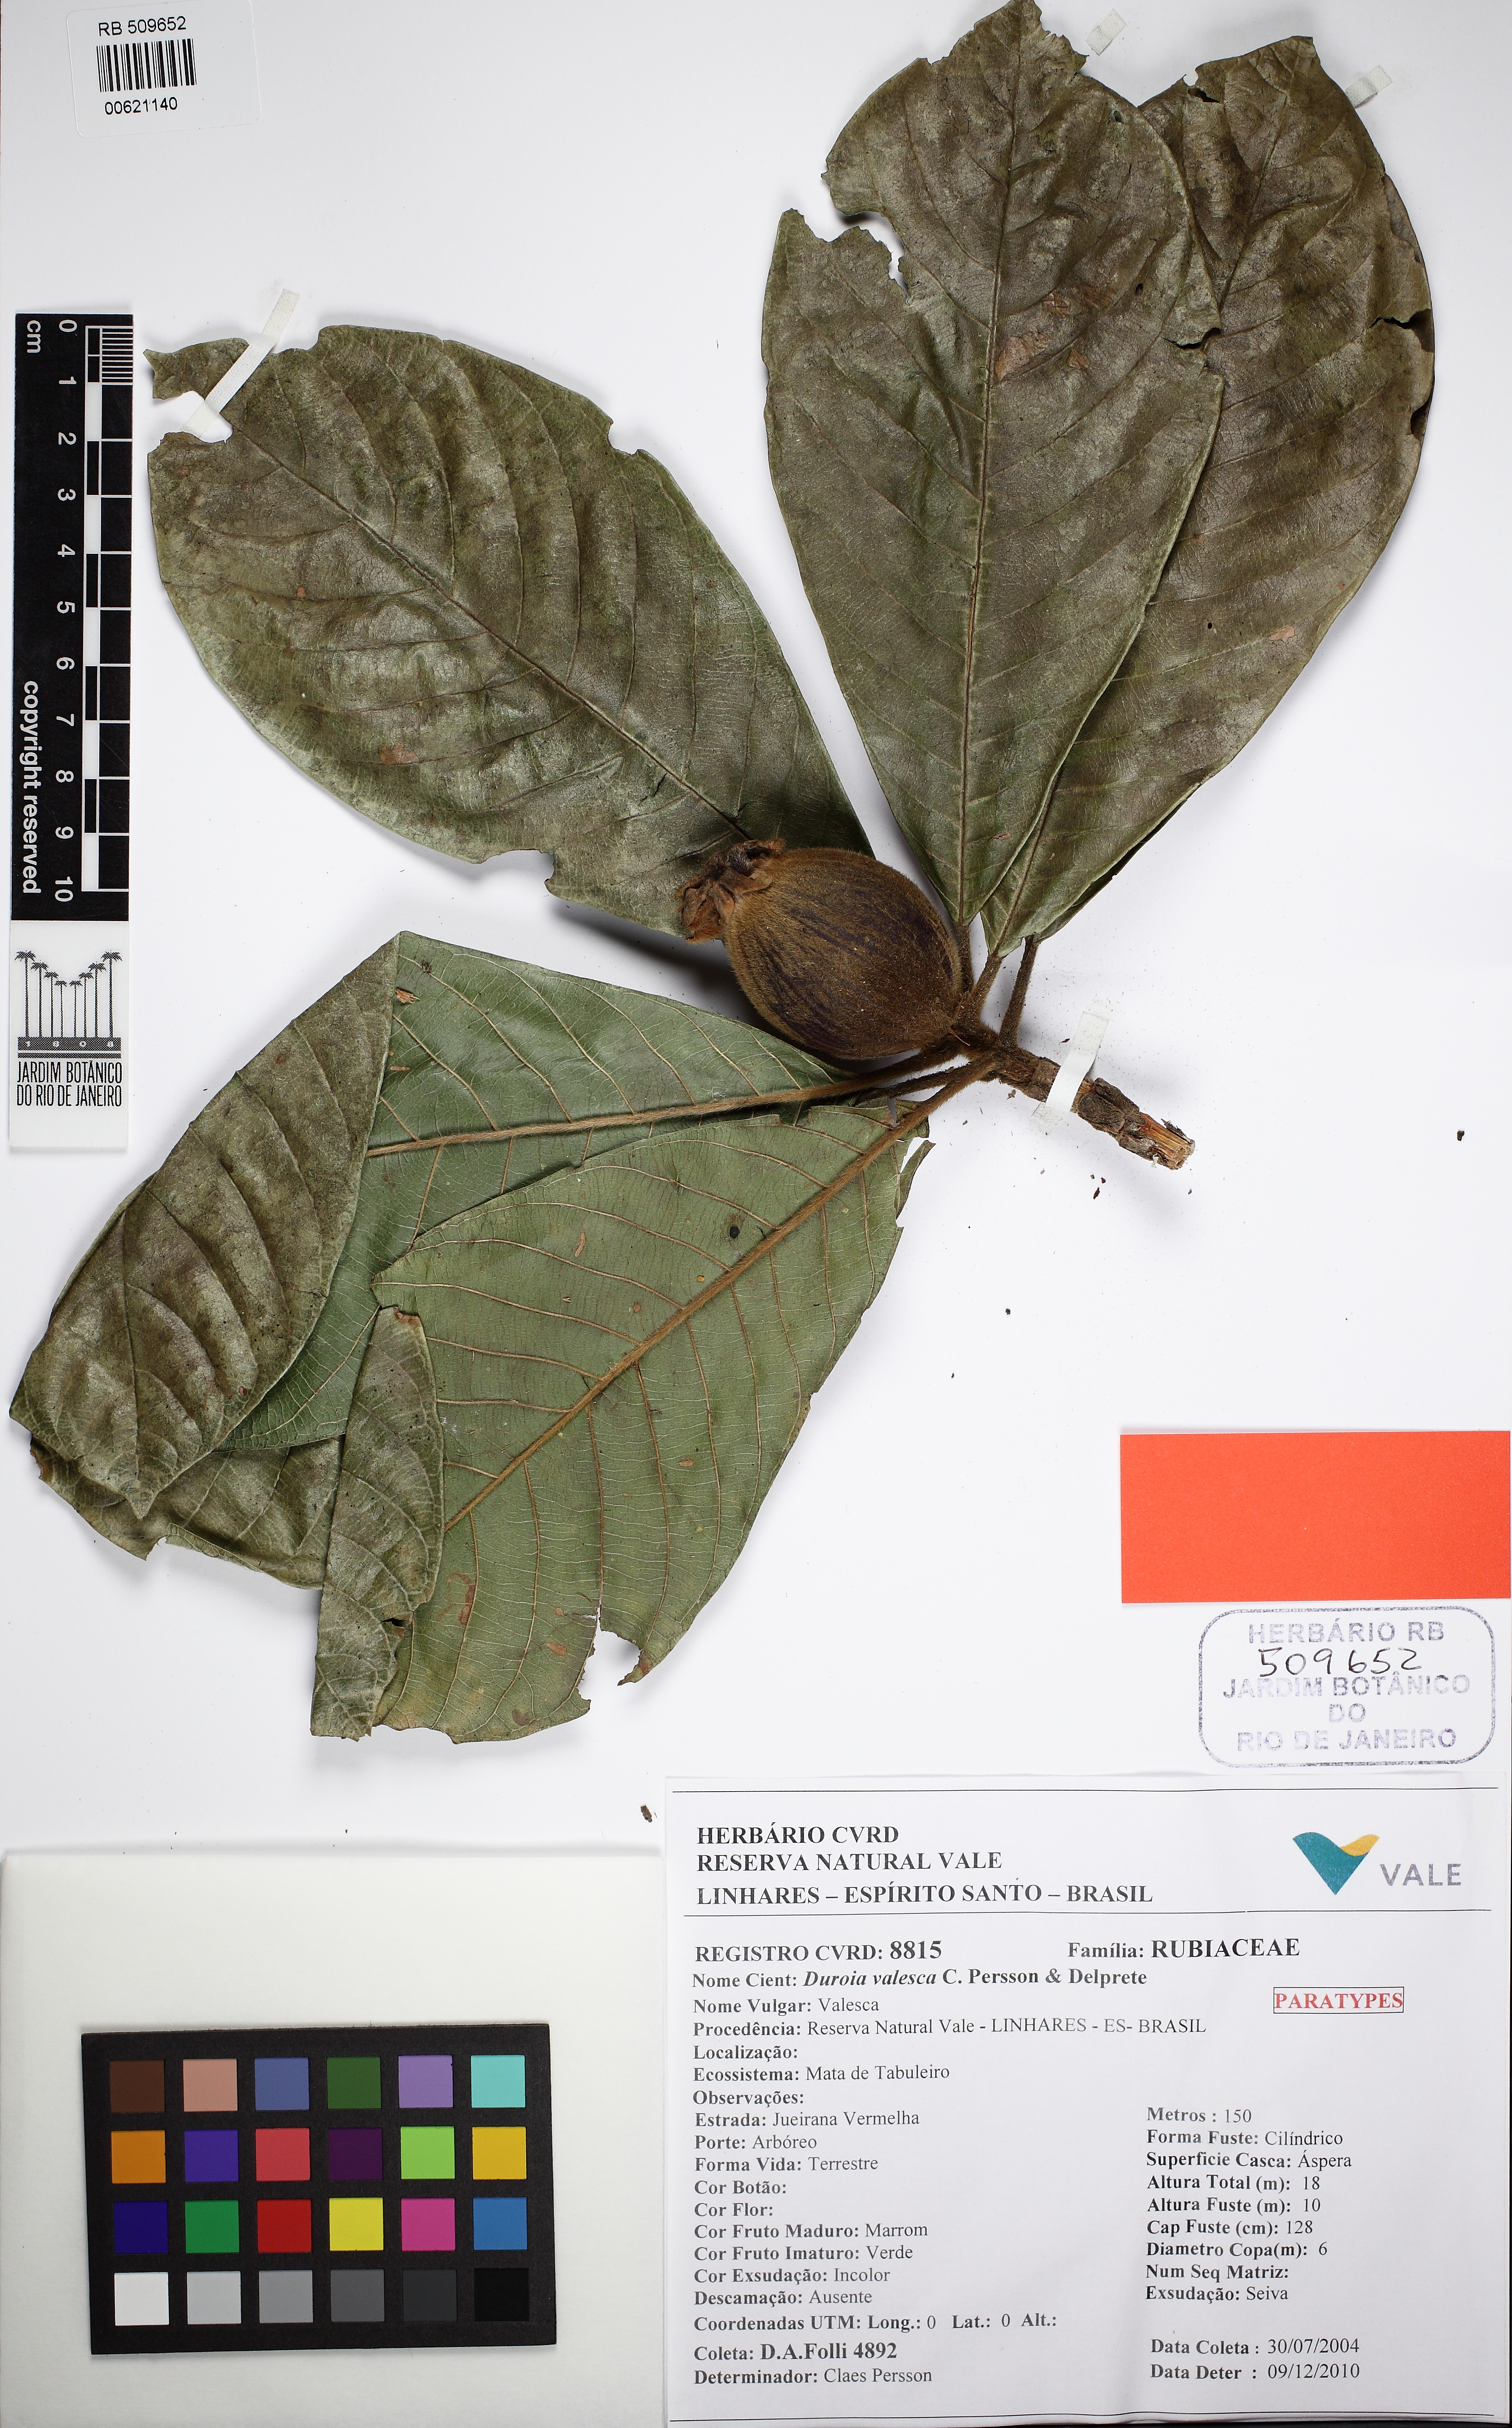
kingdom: Plantae
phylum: Tracheophyta
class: Magnoliopsida
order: Gentianales
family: Rubiaceae
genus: Duroia
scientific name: Duroia valesca
